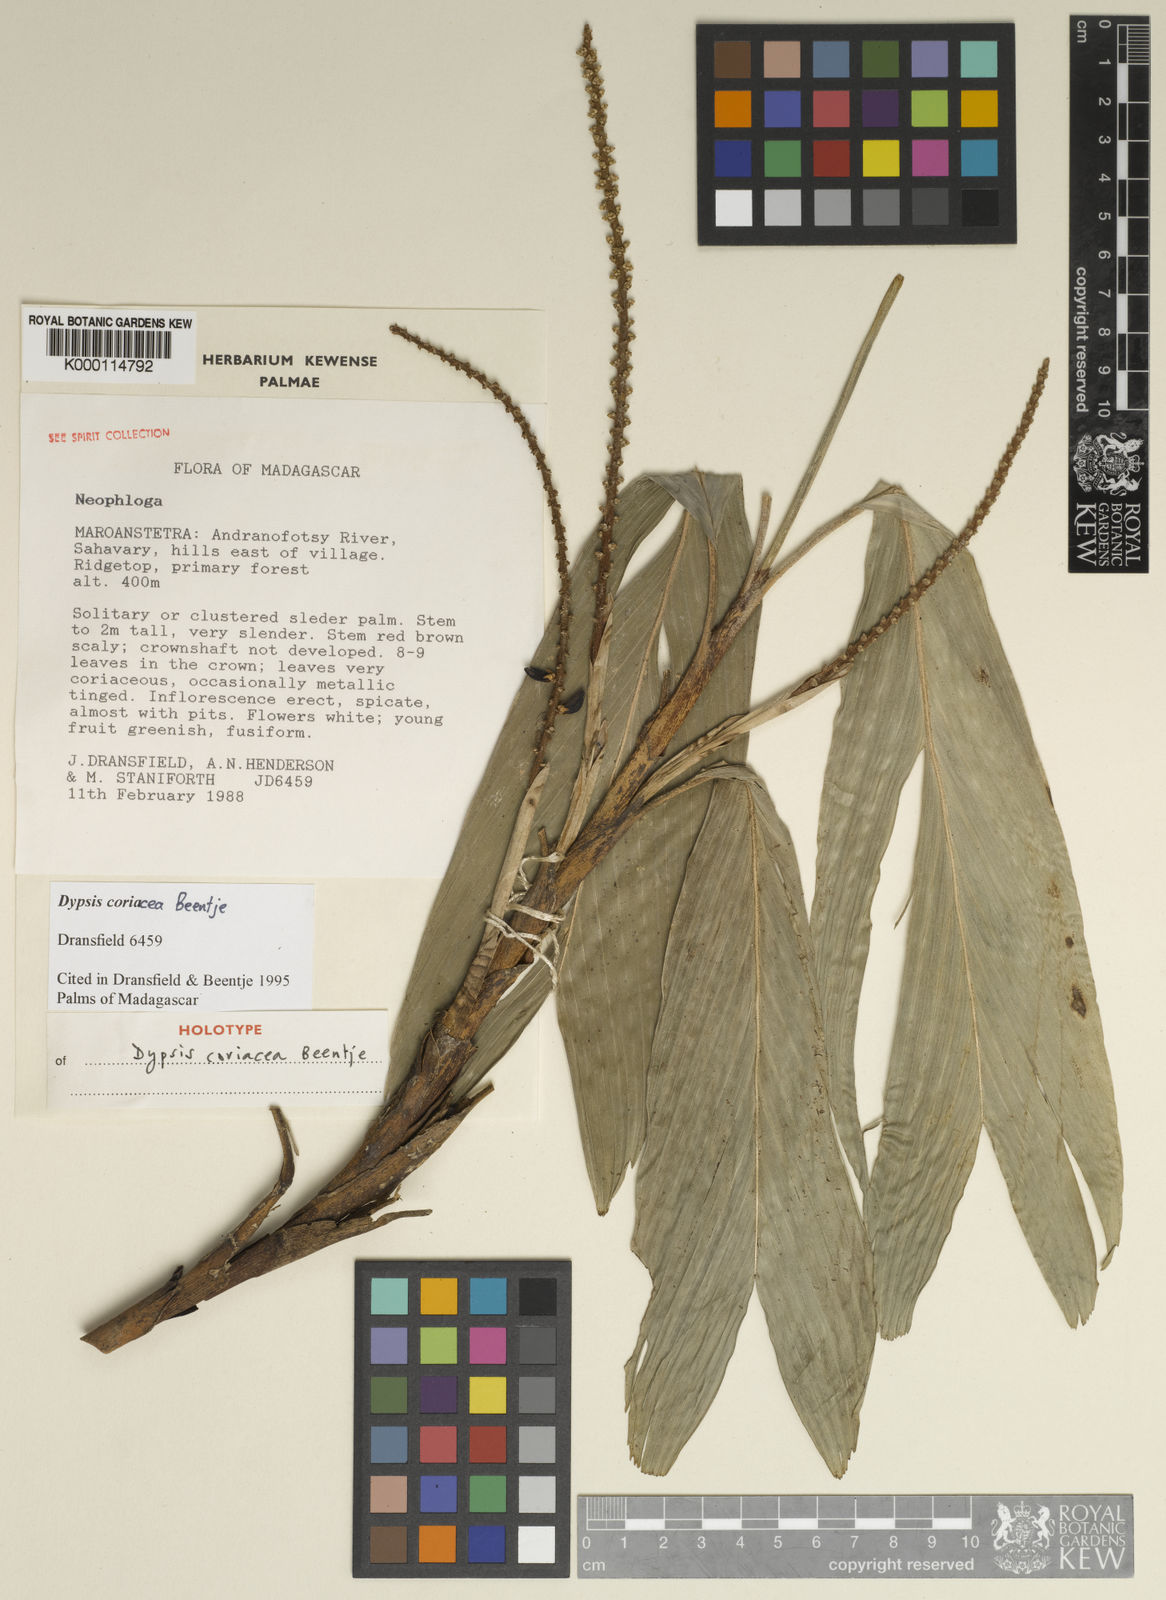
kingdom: Plantae
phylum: Tracheophyta
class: Liliopsida
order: Arecales
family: Arecaceae
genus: Dypsis
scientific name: Dypsis coriacea
